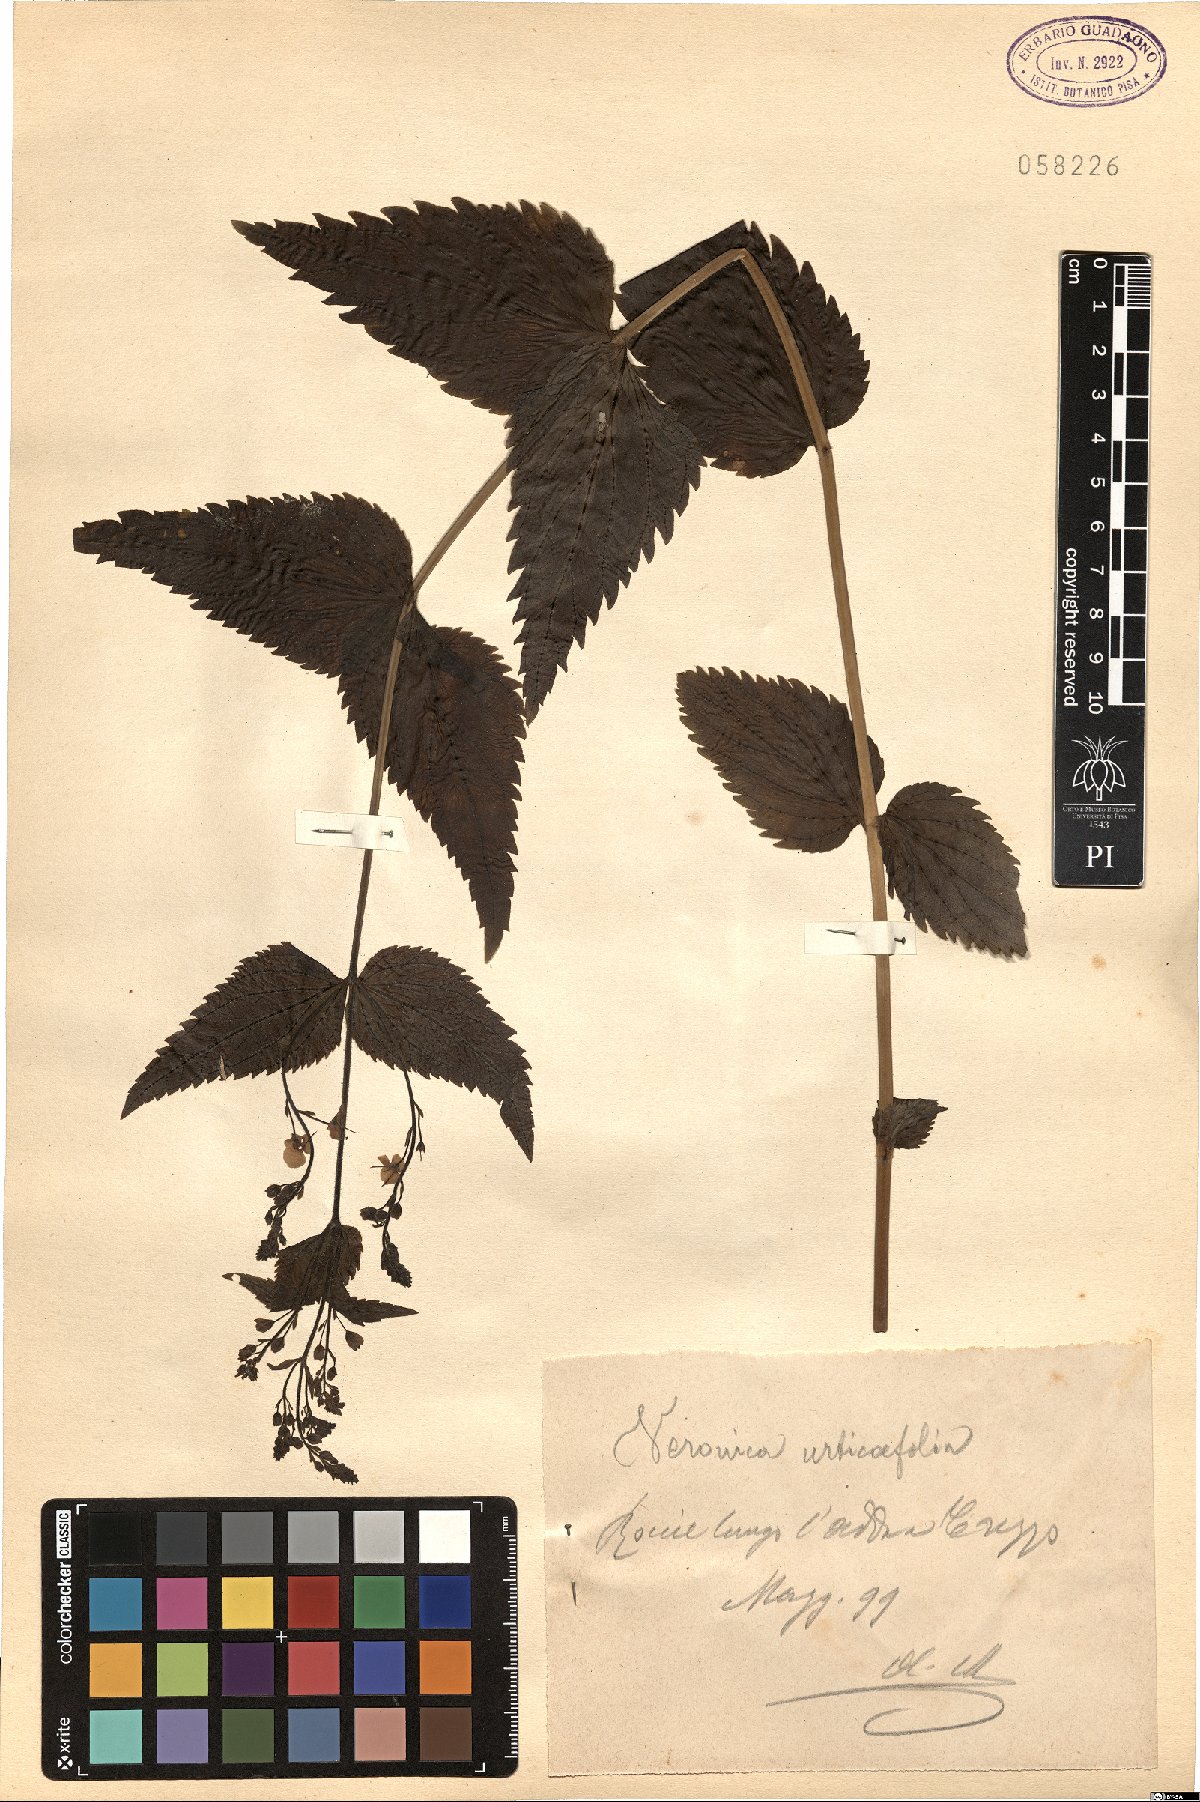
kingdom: Plantae
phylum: Tracheophyta
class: Magnoliopsida
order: Lamiales
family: Plantaginaceae
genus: Veronica
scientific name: Veronica urticifolia
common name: Nettle-leaf speedwell
